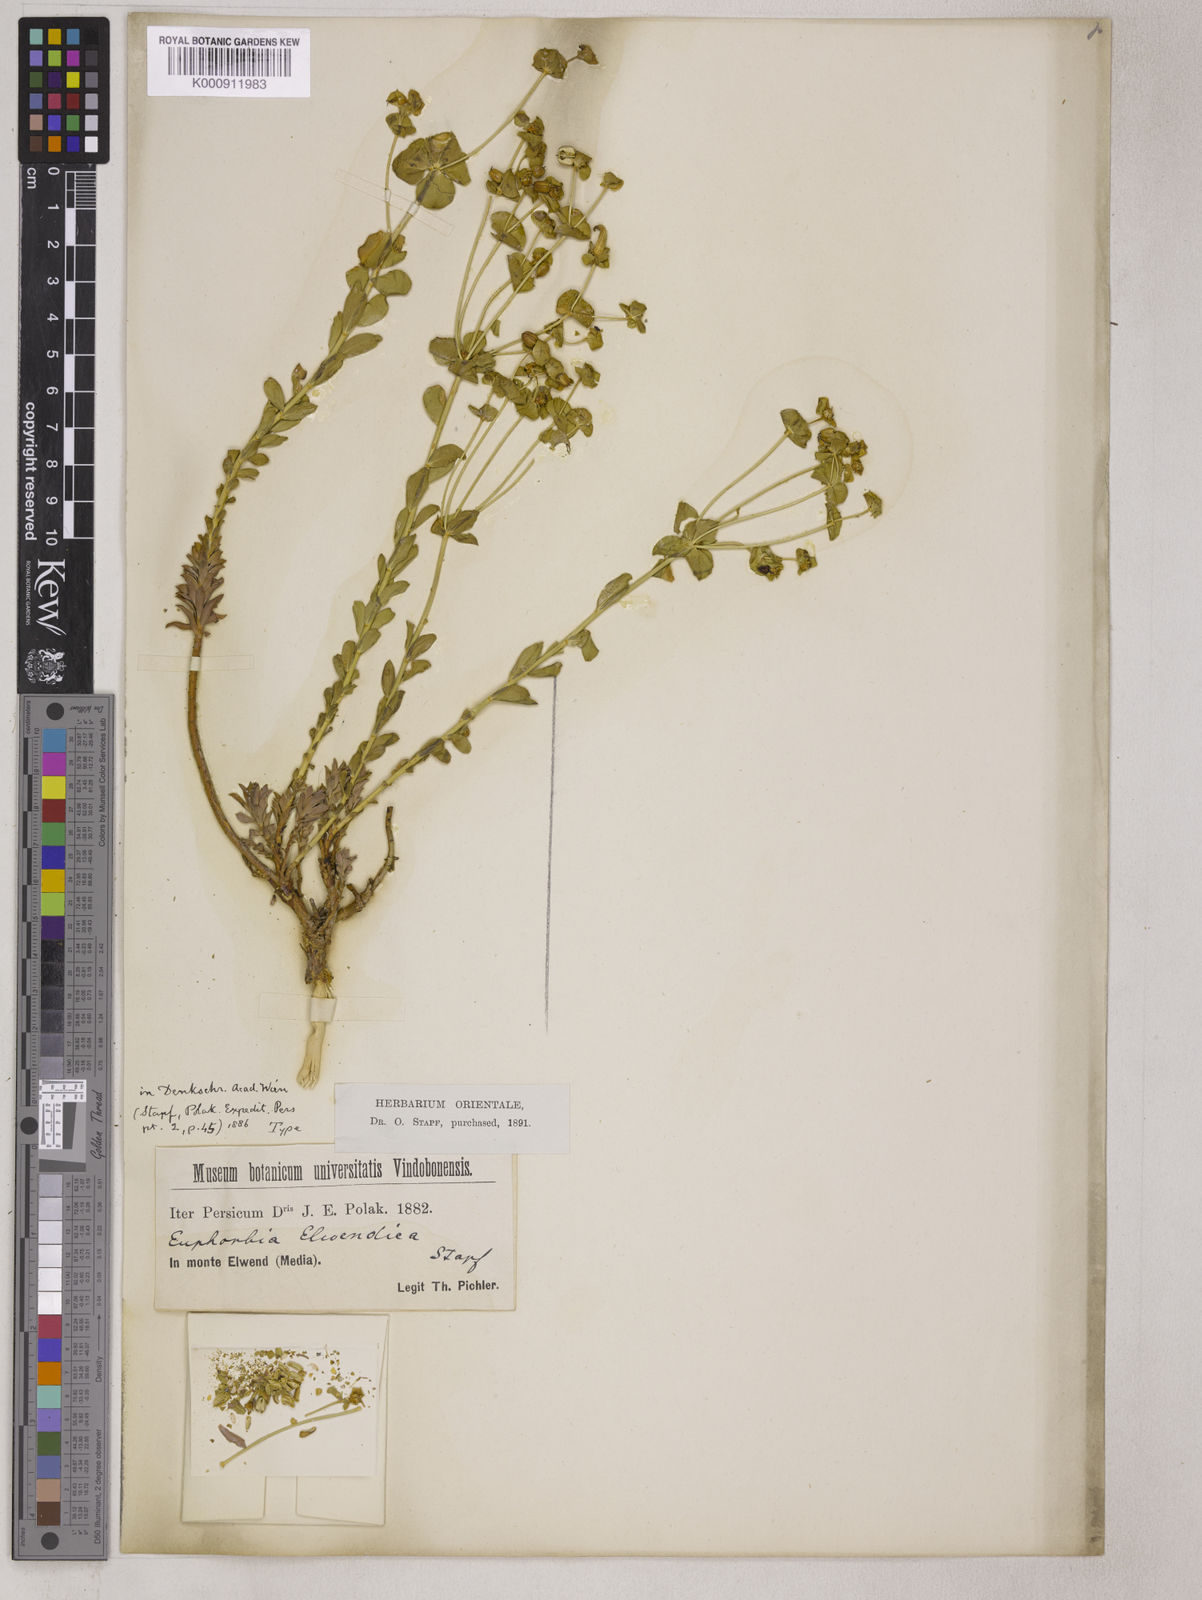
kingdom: Plantae
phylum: Tracheophyta
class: Magnoliopsida
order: Malpighiales
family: Euphorbiaceae
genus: Euphorbia
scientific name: Euphorbia cheiradenia
